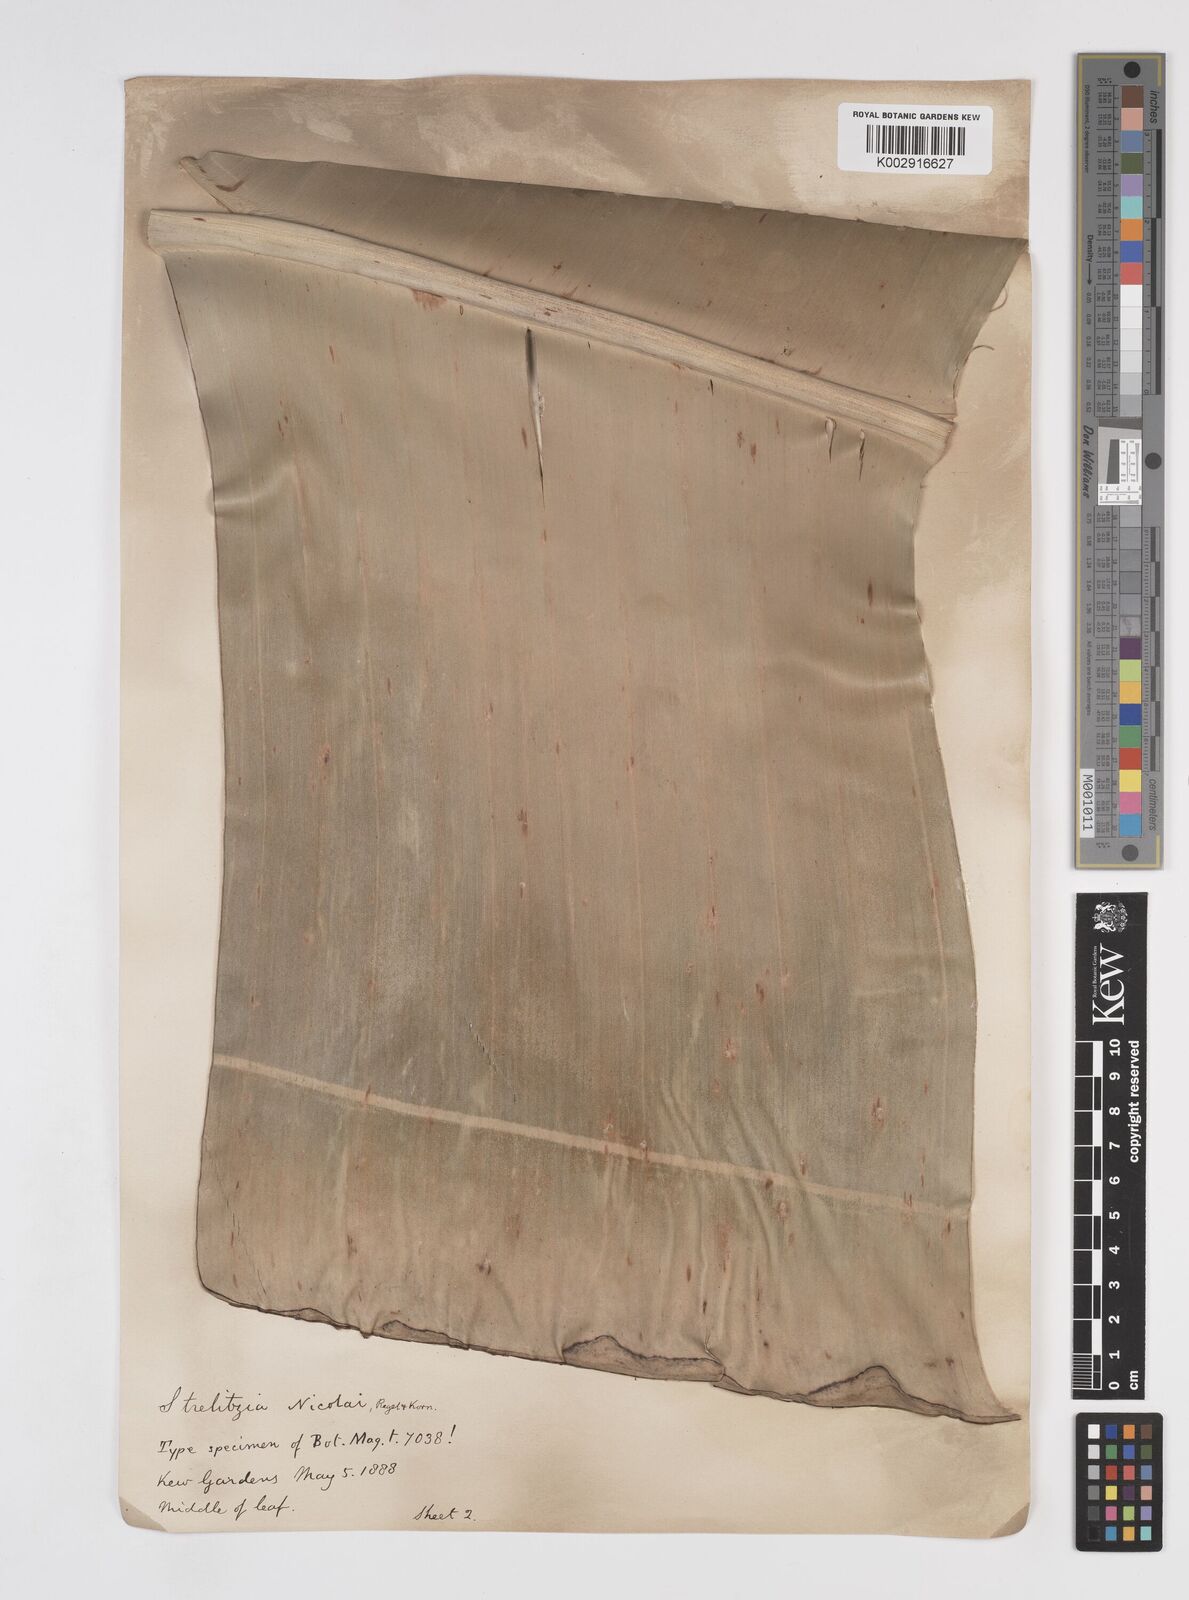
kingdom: Plantae
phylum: Tracheophyta
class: Liliopsida
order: Zingiberales
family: Strelitziaceae
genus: Strelitzia
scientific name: Strelitzia nicolai
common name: Bird-of-paradise tree
